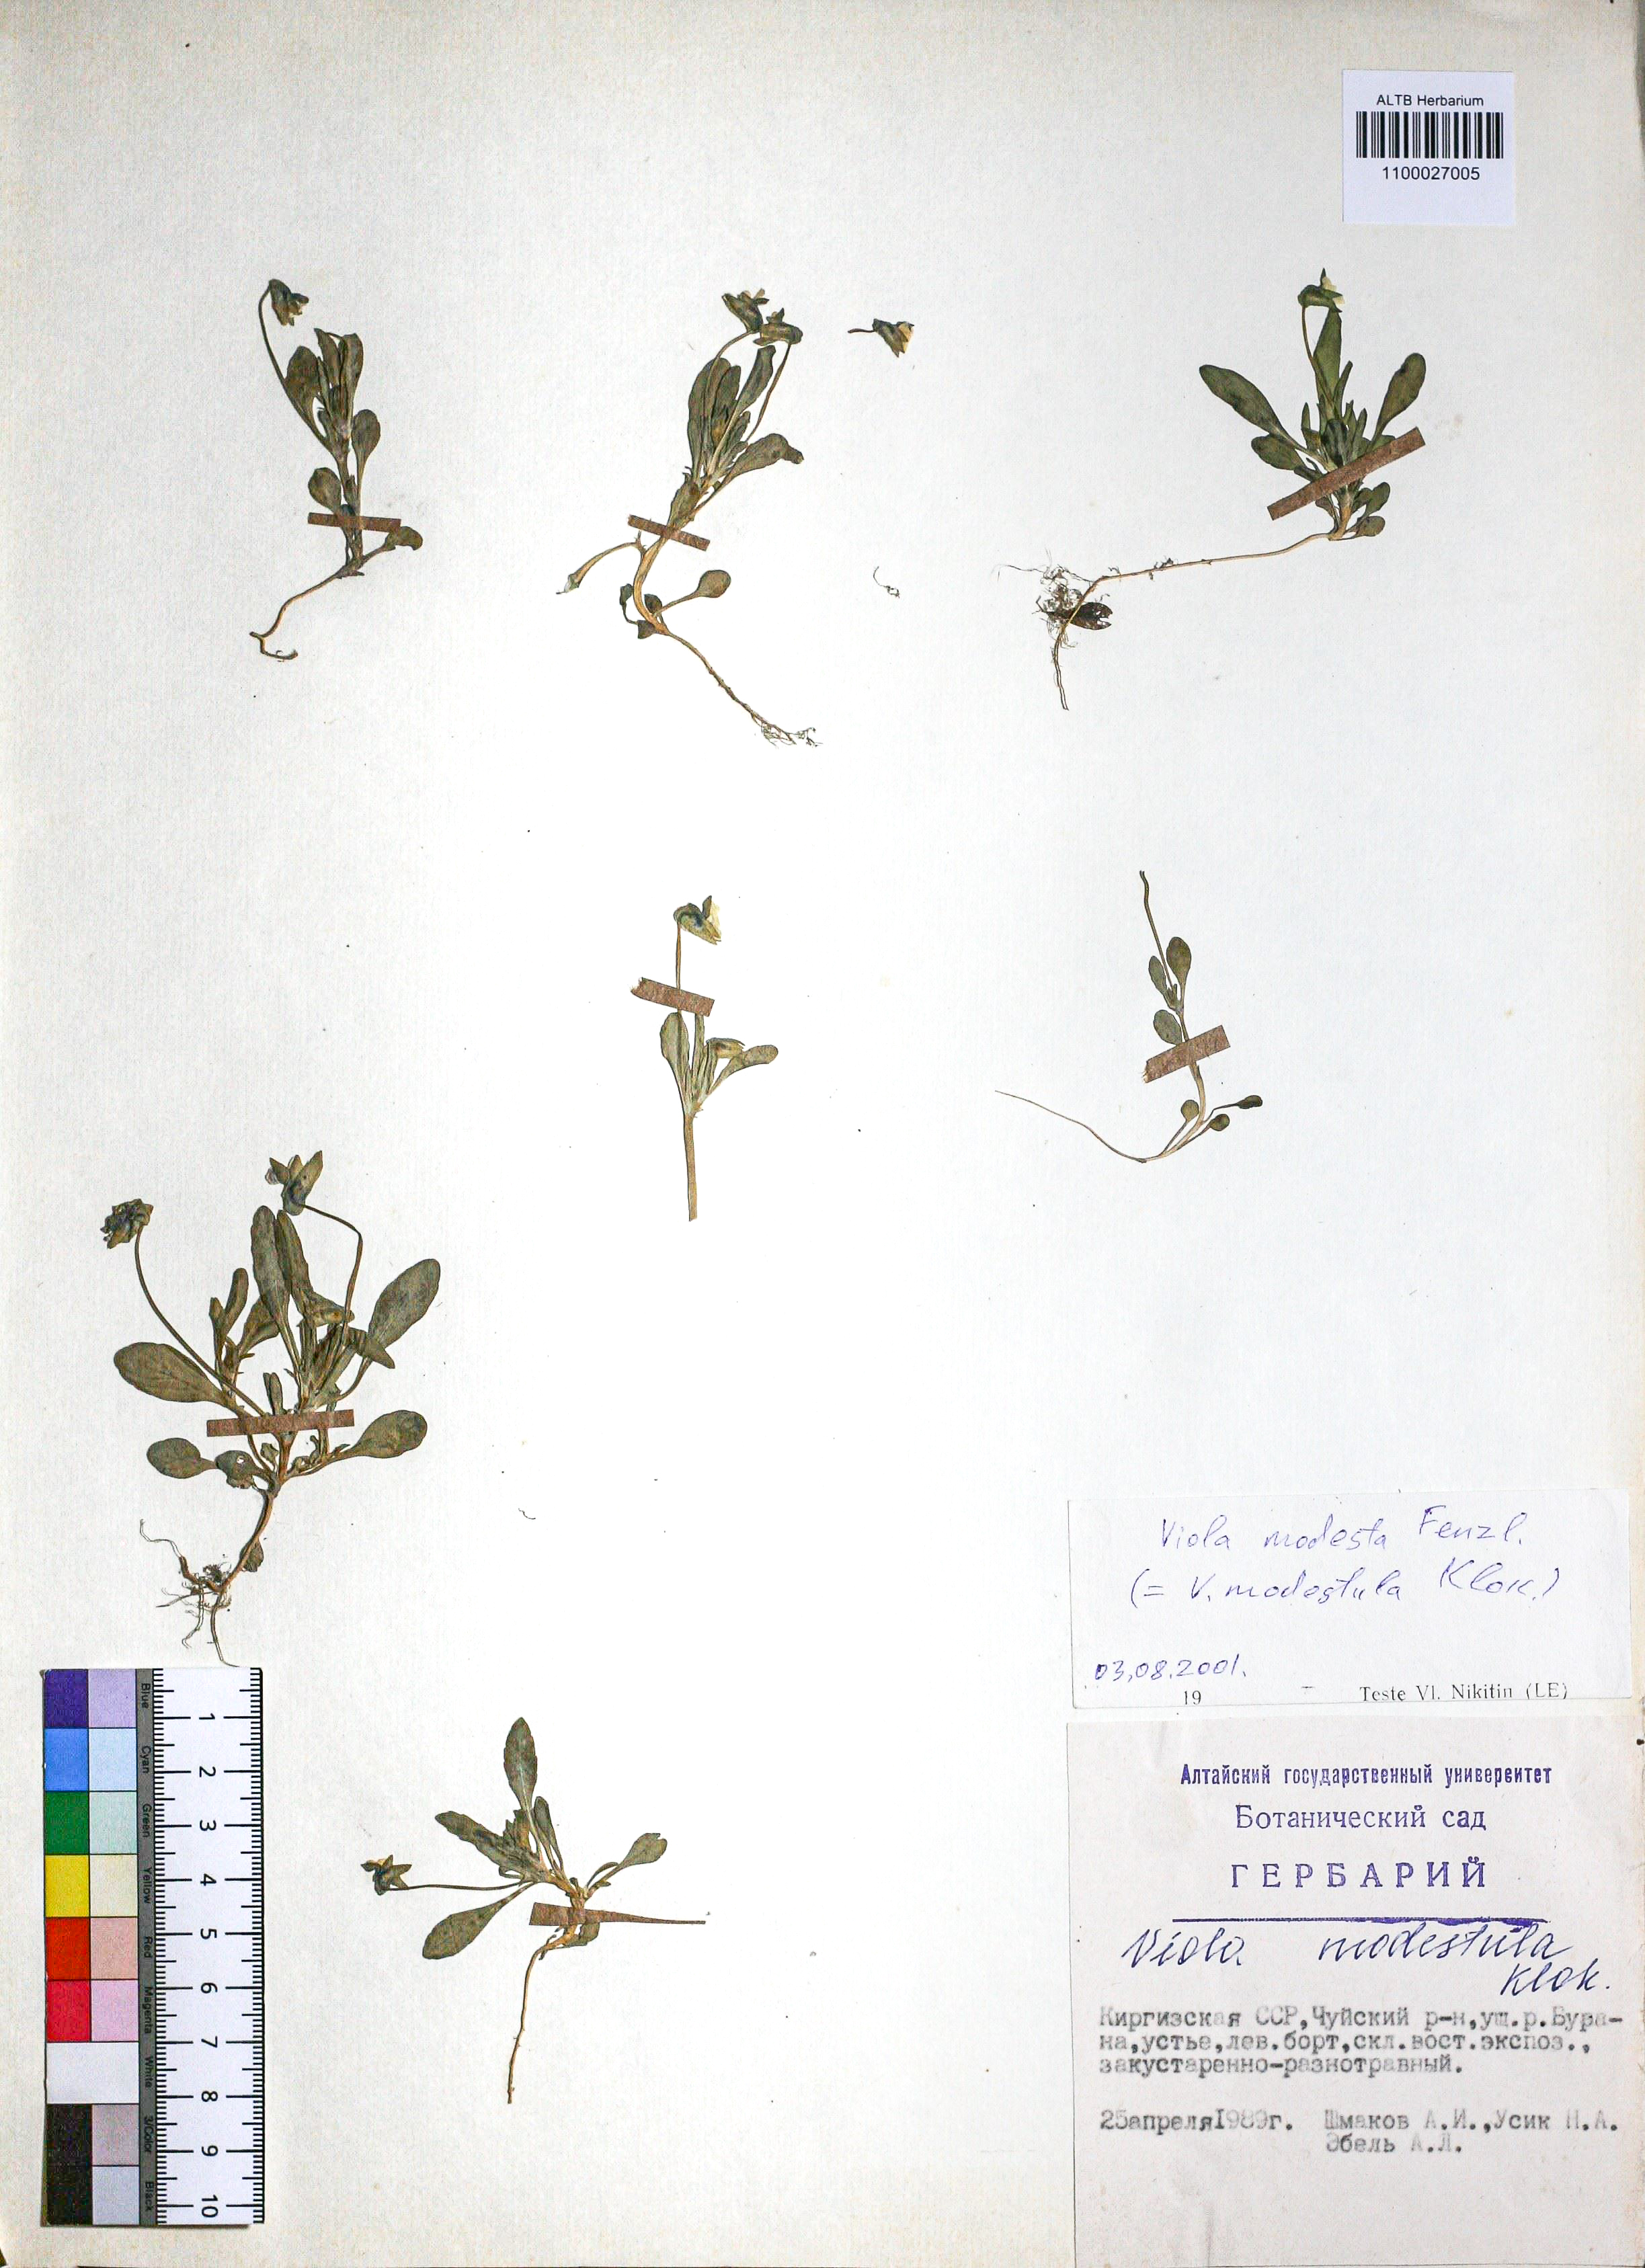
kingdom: Plantae
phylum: Tracheophyta
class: Magnoliopsida
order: Malpighiales
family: Violaceae
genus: Viola
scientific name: Viola modesta
